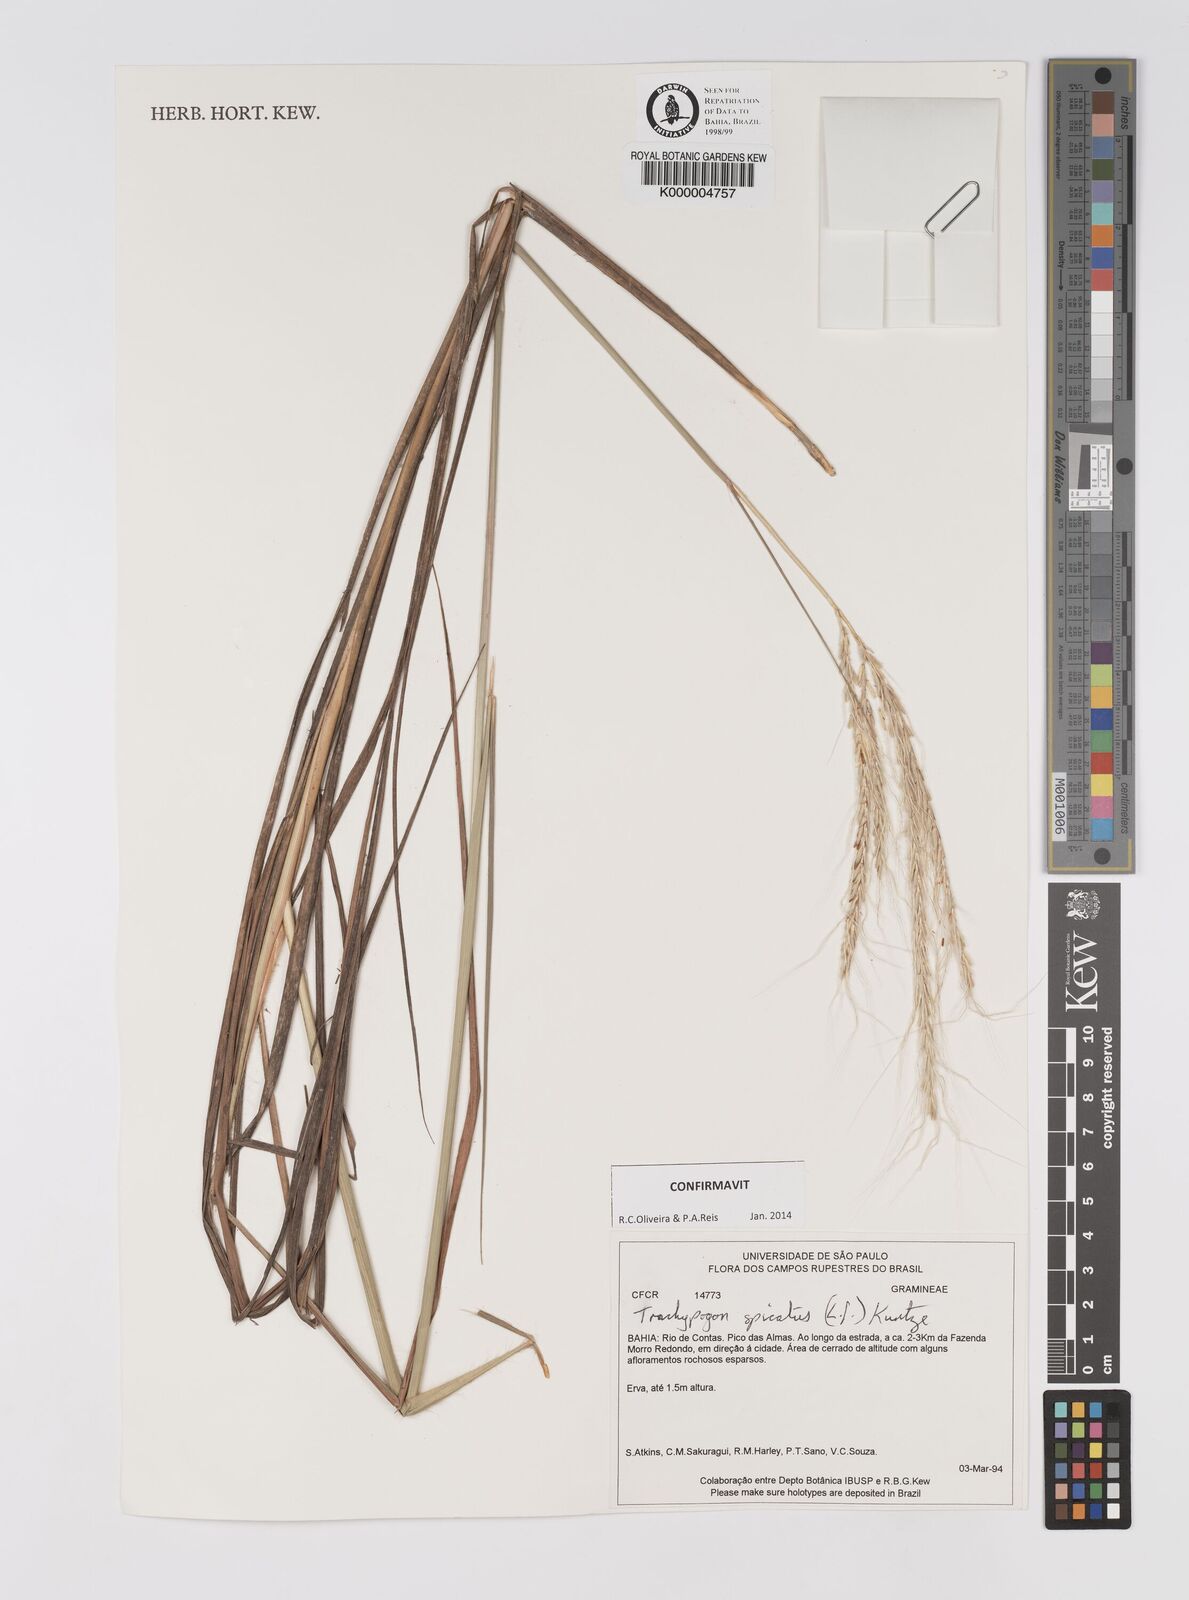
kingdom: Plantae
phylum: Tracheophyta
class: Liliopsida
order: Poales
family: Poaceae
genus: Trachypogon
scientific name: Trachypogon spicatus
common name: Crinkle-awn
